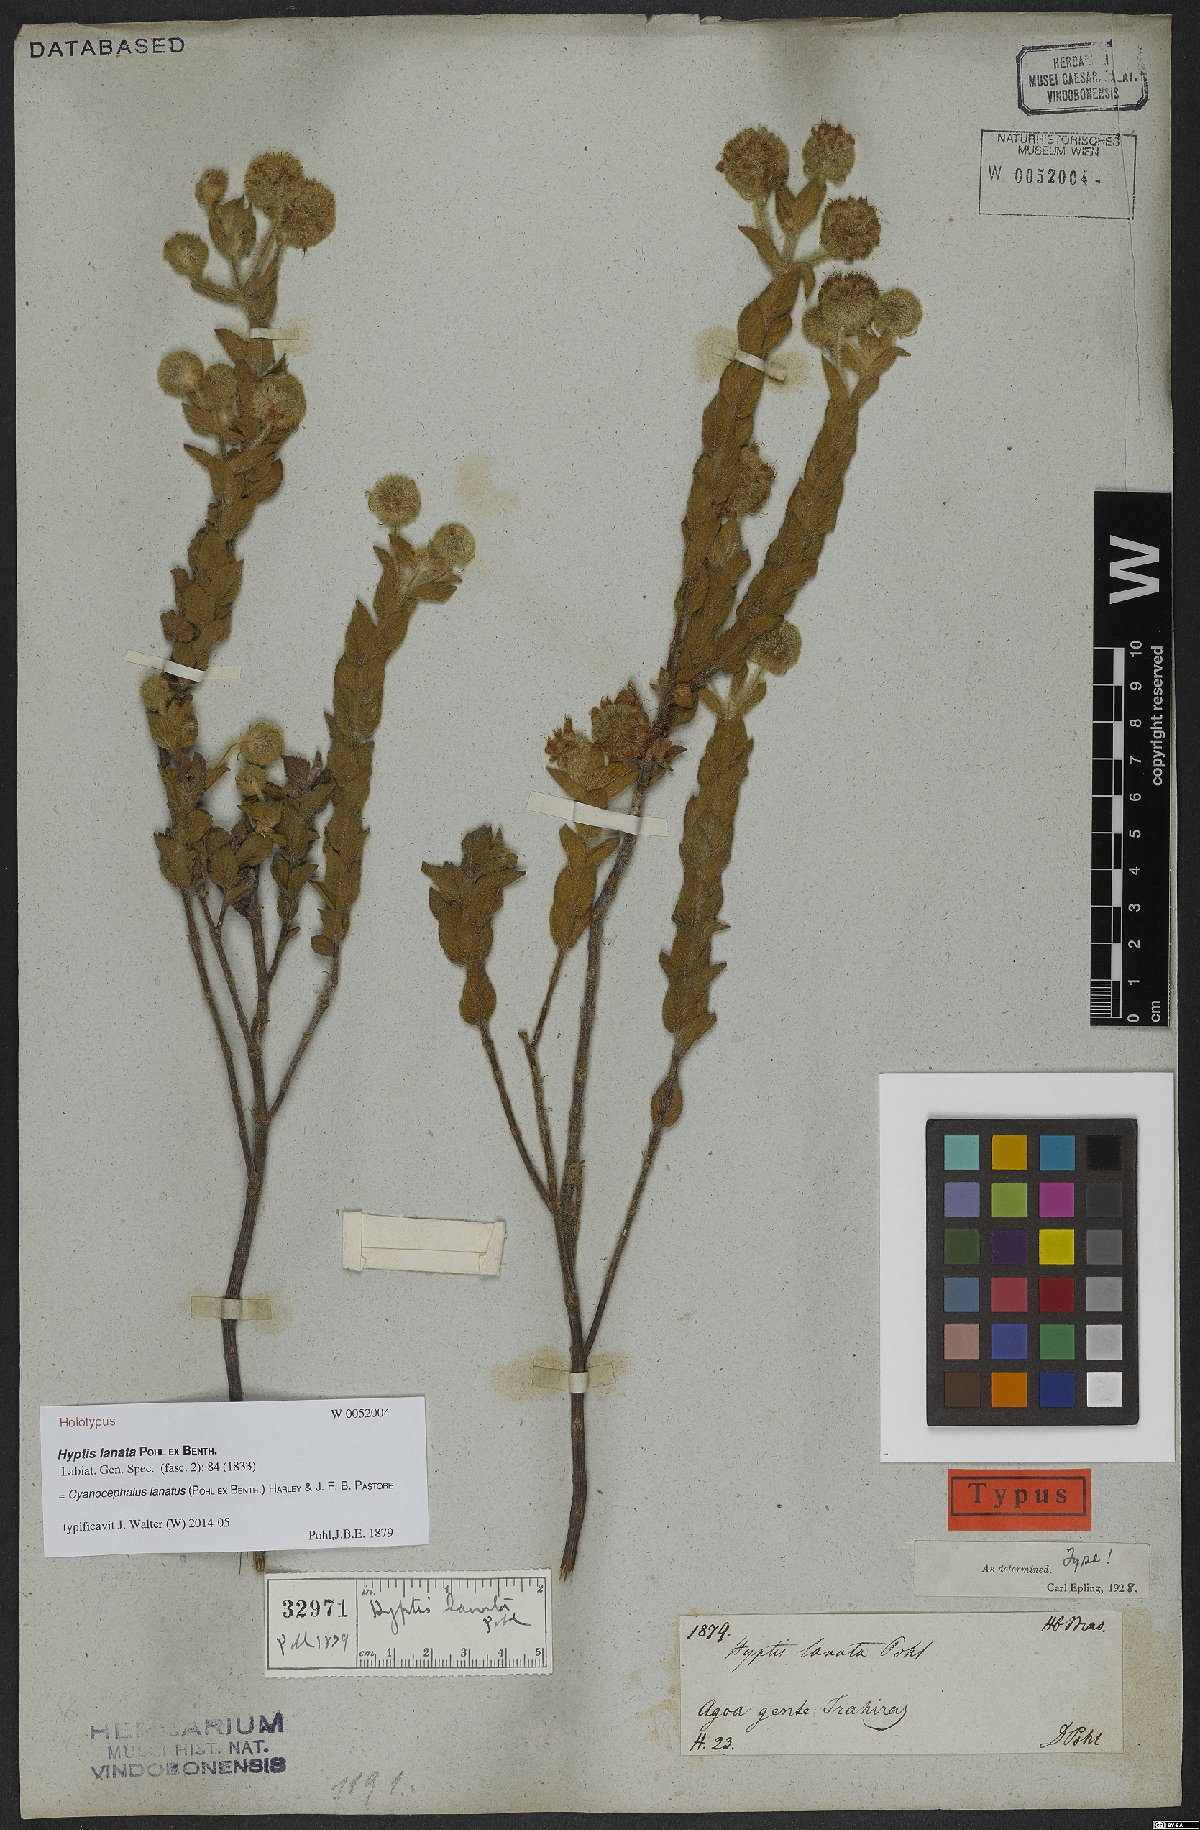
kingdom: Plantae
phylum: Tracheophyta
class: Magnoliopsida
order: Lamiales
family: Lamiaceae
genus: Cyanocephalus
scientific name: Cyanocephalus lanatus
